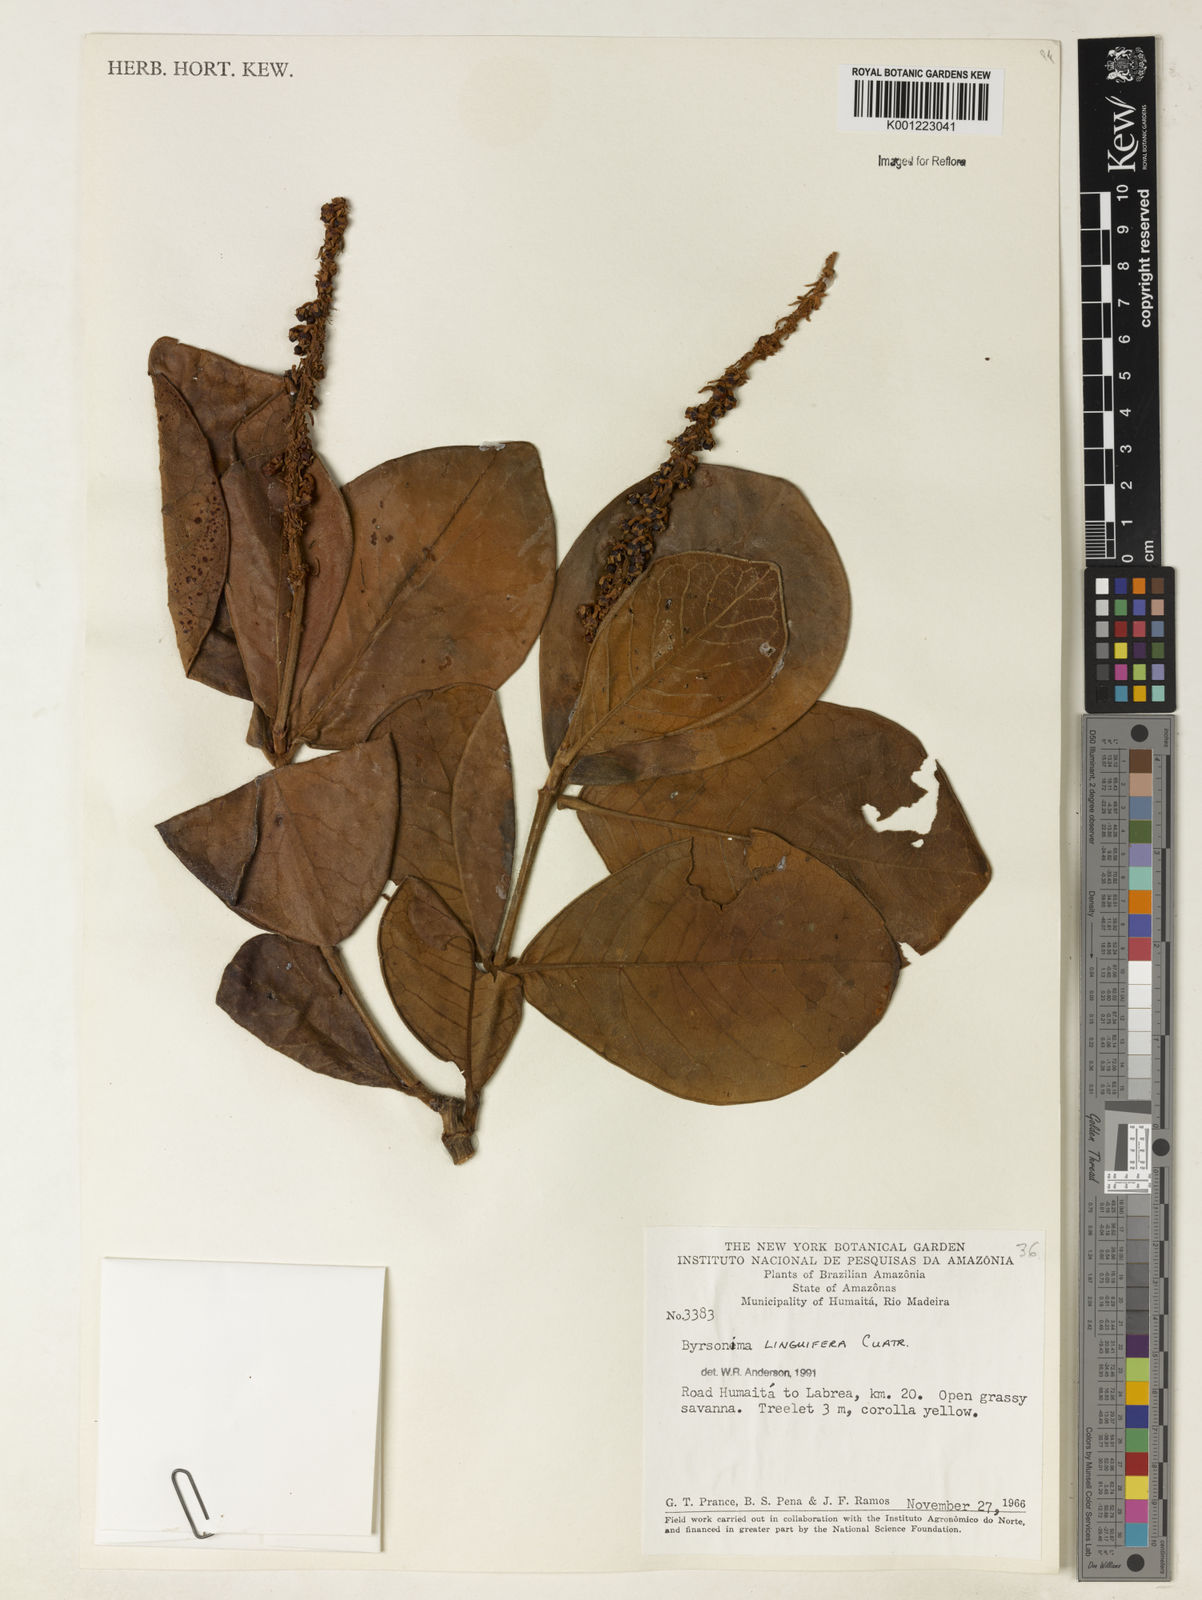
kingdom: Plantae
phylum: Tracheophyta
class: Magnoliopsida
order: Malpighiales
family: Malpighiaceae
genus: Byrsonima
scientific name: Byrsonima linguifera
